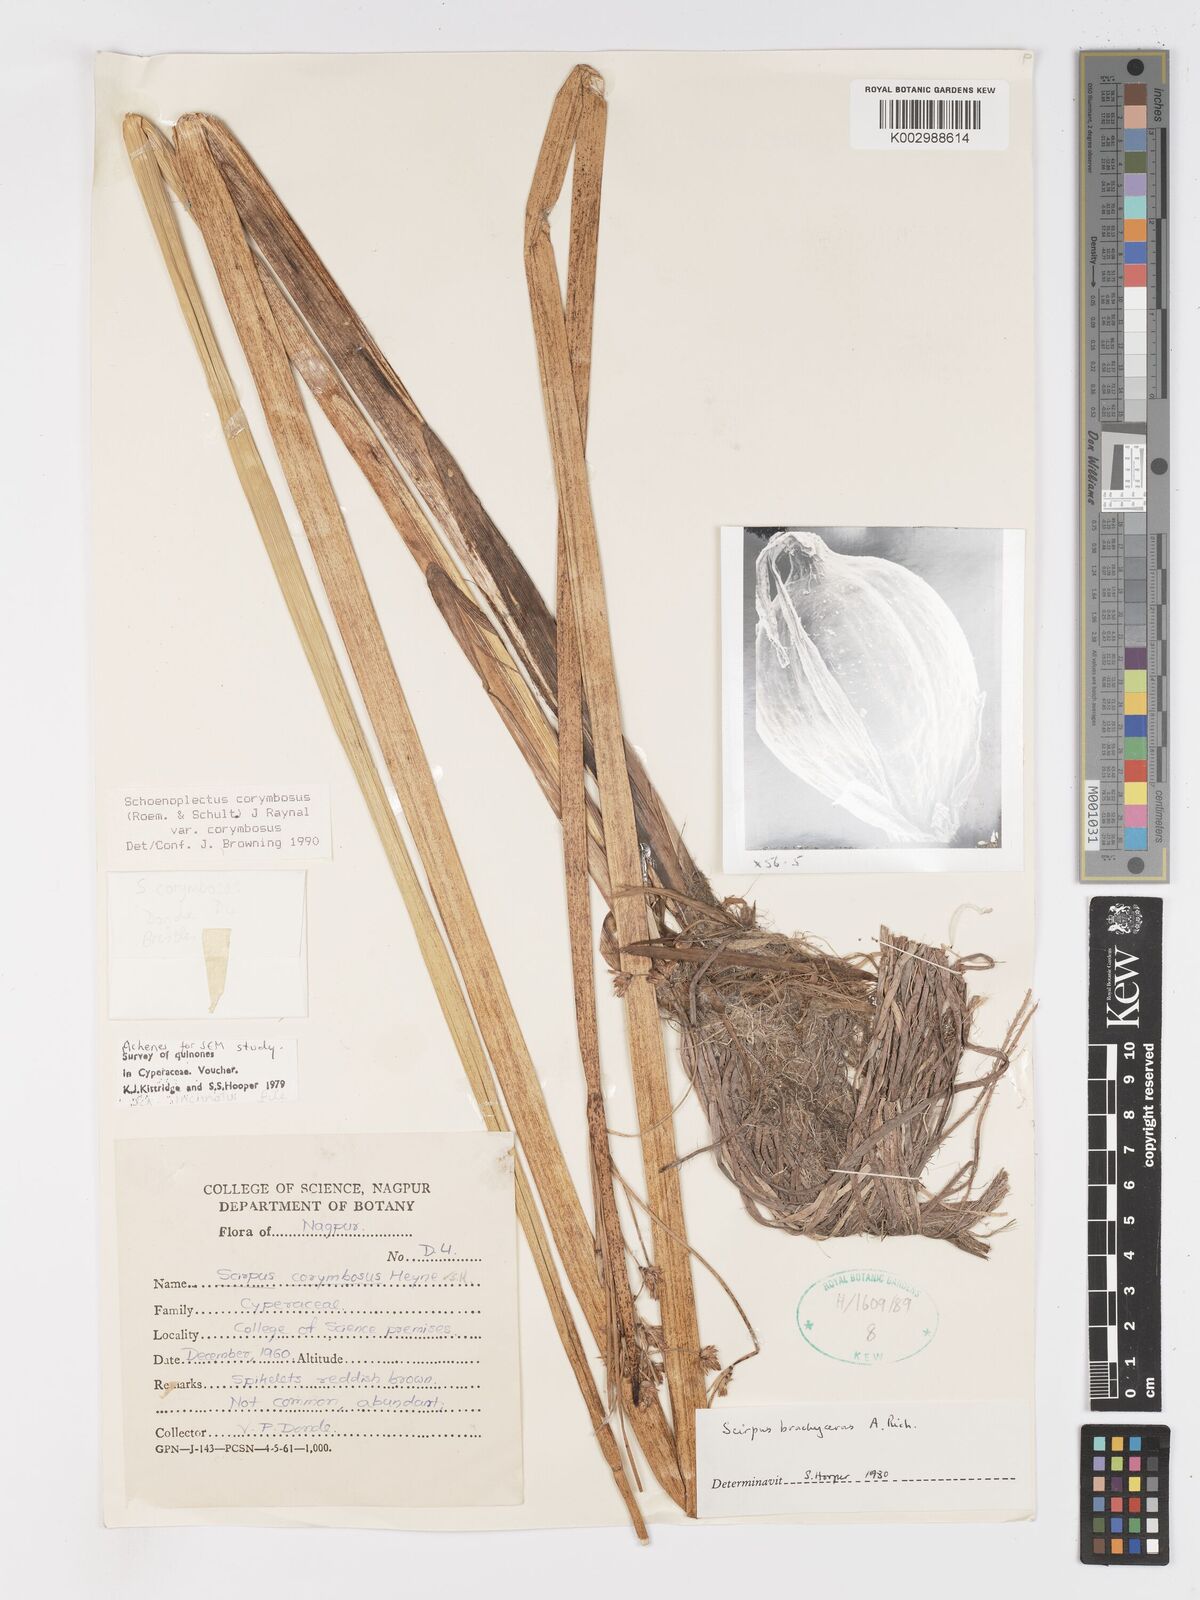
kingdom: Plantae
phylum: Tracheophyta
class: Liliopsida
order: Poales
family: Cyperaceae
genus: Schoenoplectiella
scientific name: Schoenoplectiella corymbosa
